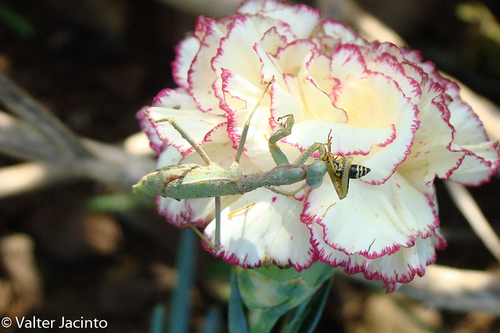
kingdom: Animalia
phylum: Arthropoda
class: Insecta
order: Mantodea
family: Eremiaphilidae
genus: Iris
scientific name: Iris oratoria
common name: Mediterranean mantis
